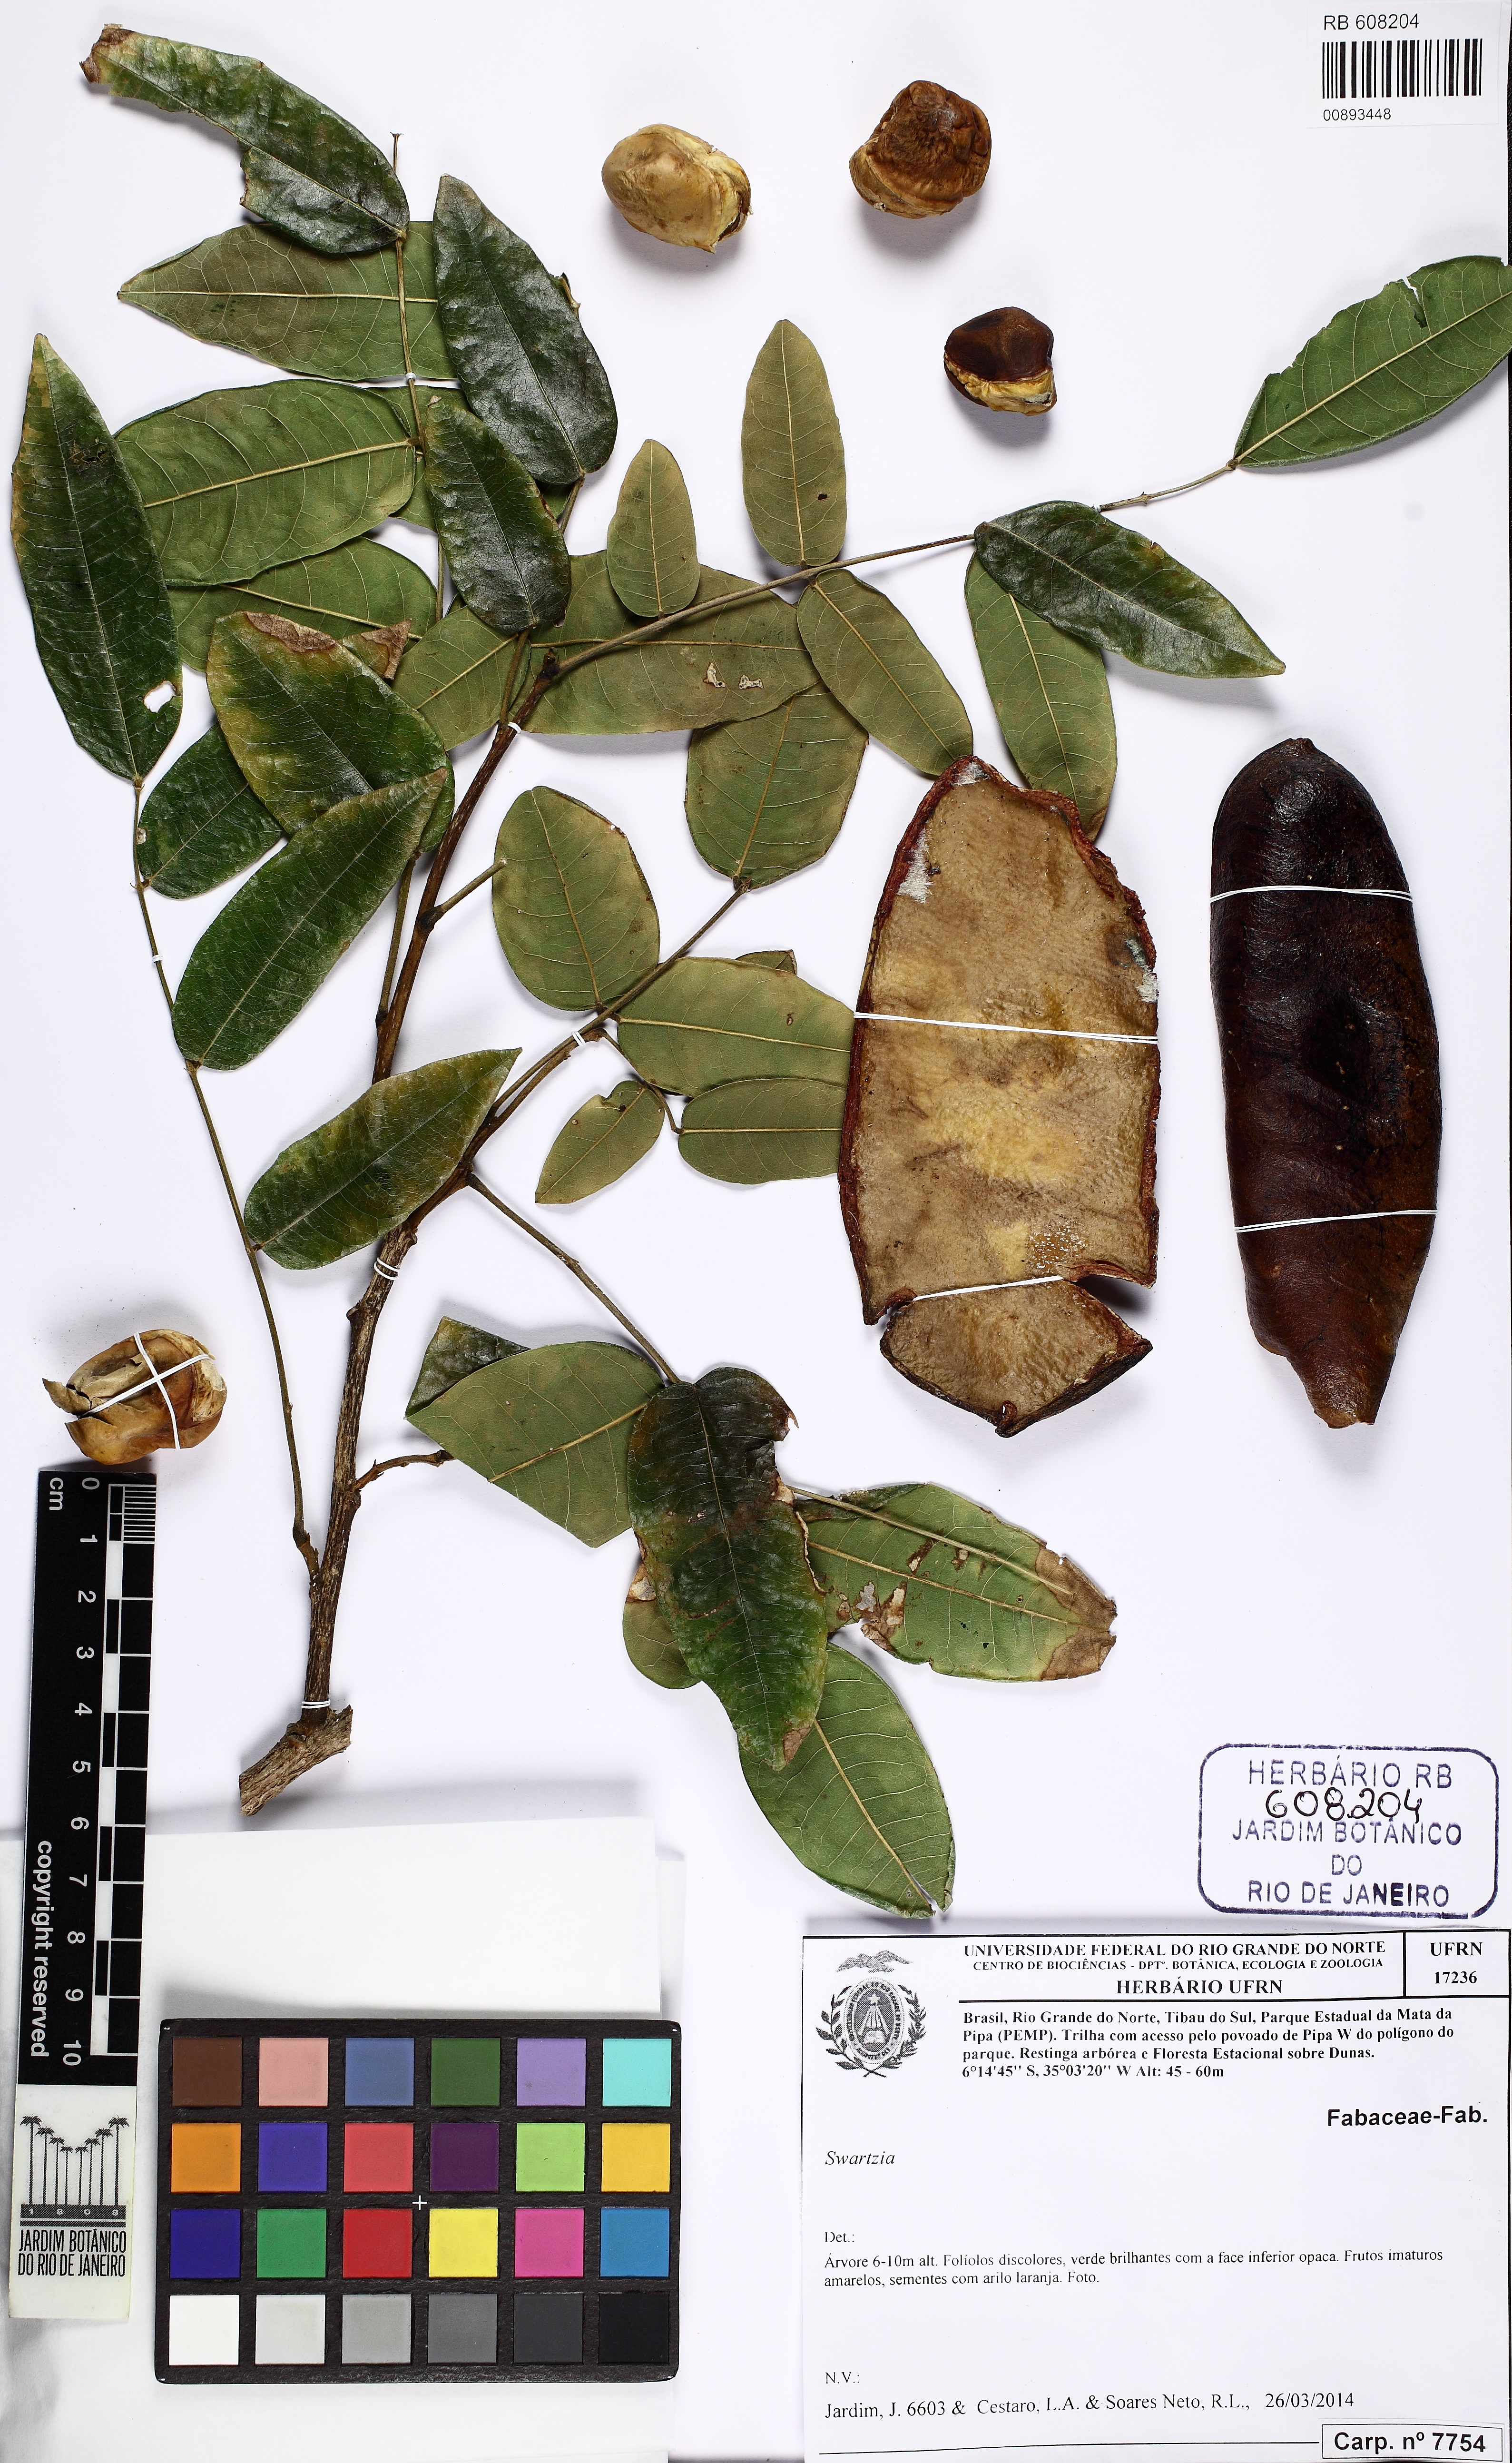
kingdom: Plantae
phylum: Tracheophyta
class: Magnoliopsida
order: Fabales
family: Fabaceae
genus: Swartzia
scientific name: Swartzia pickelii
